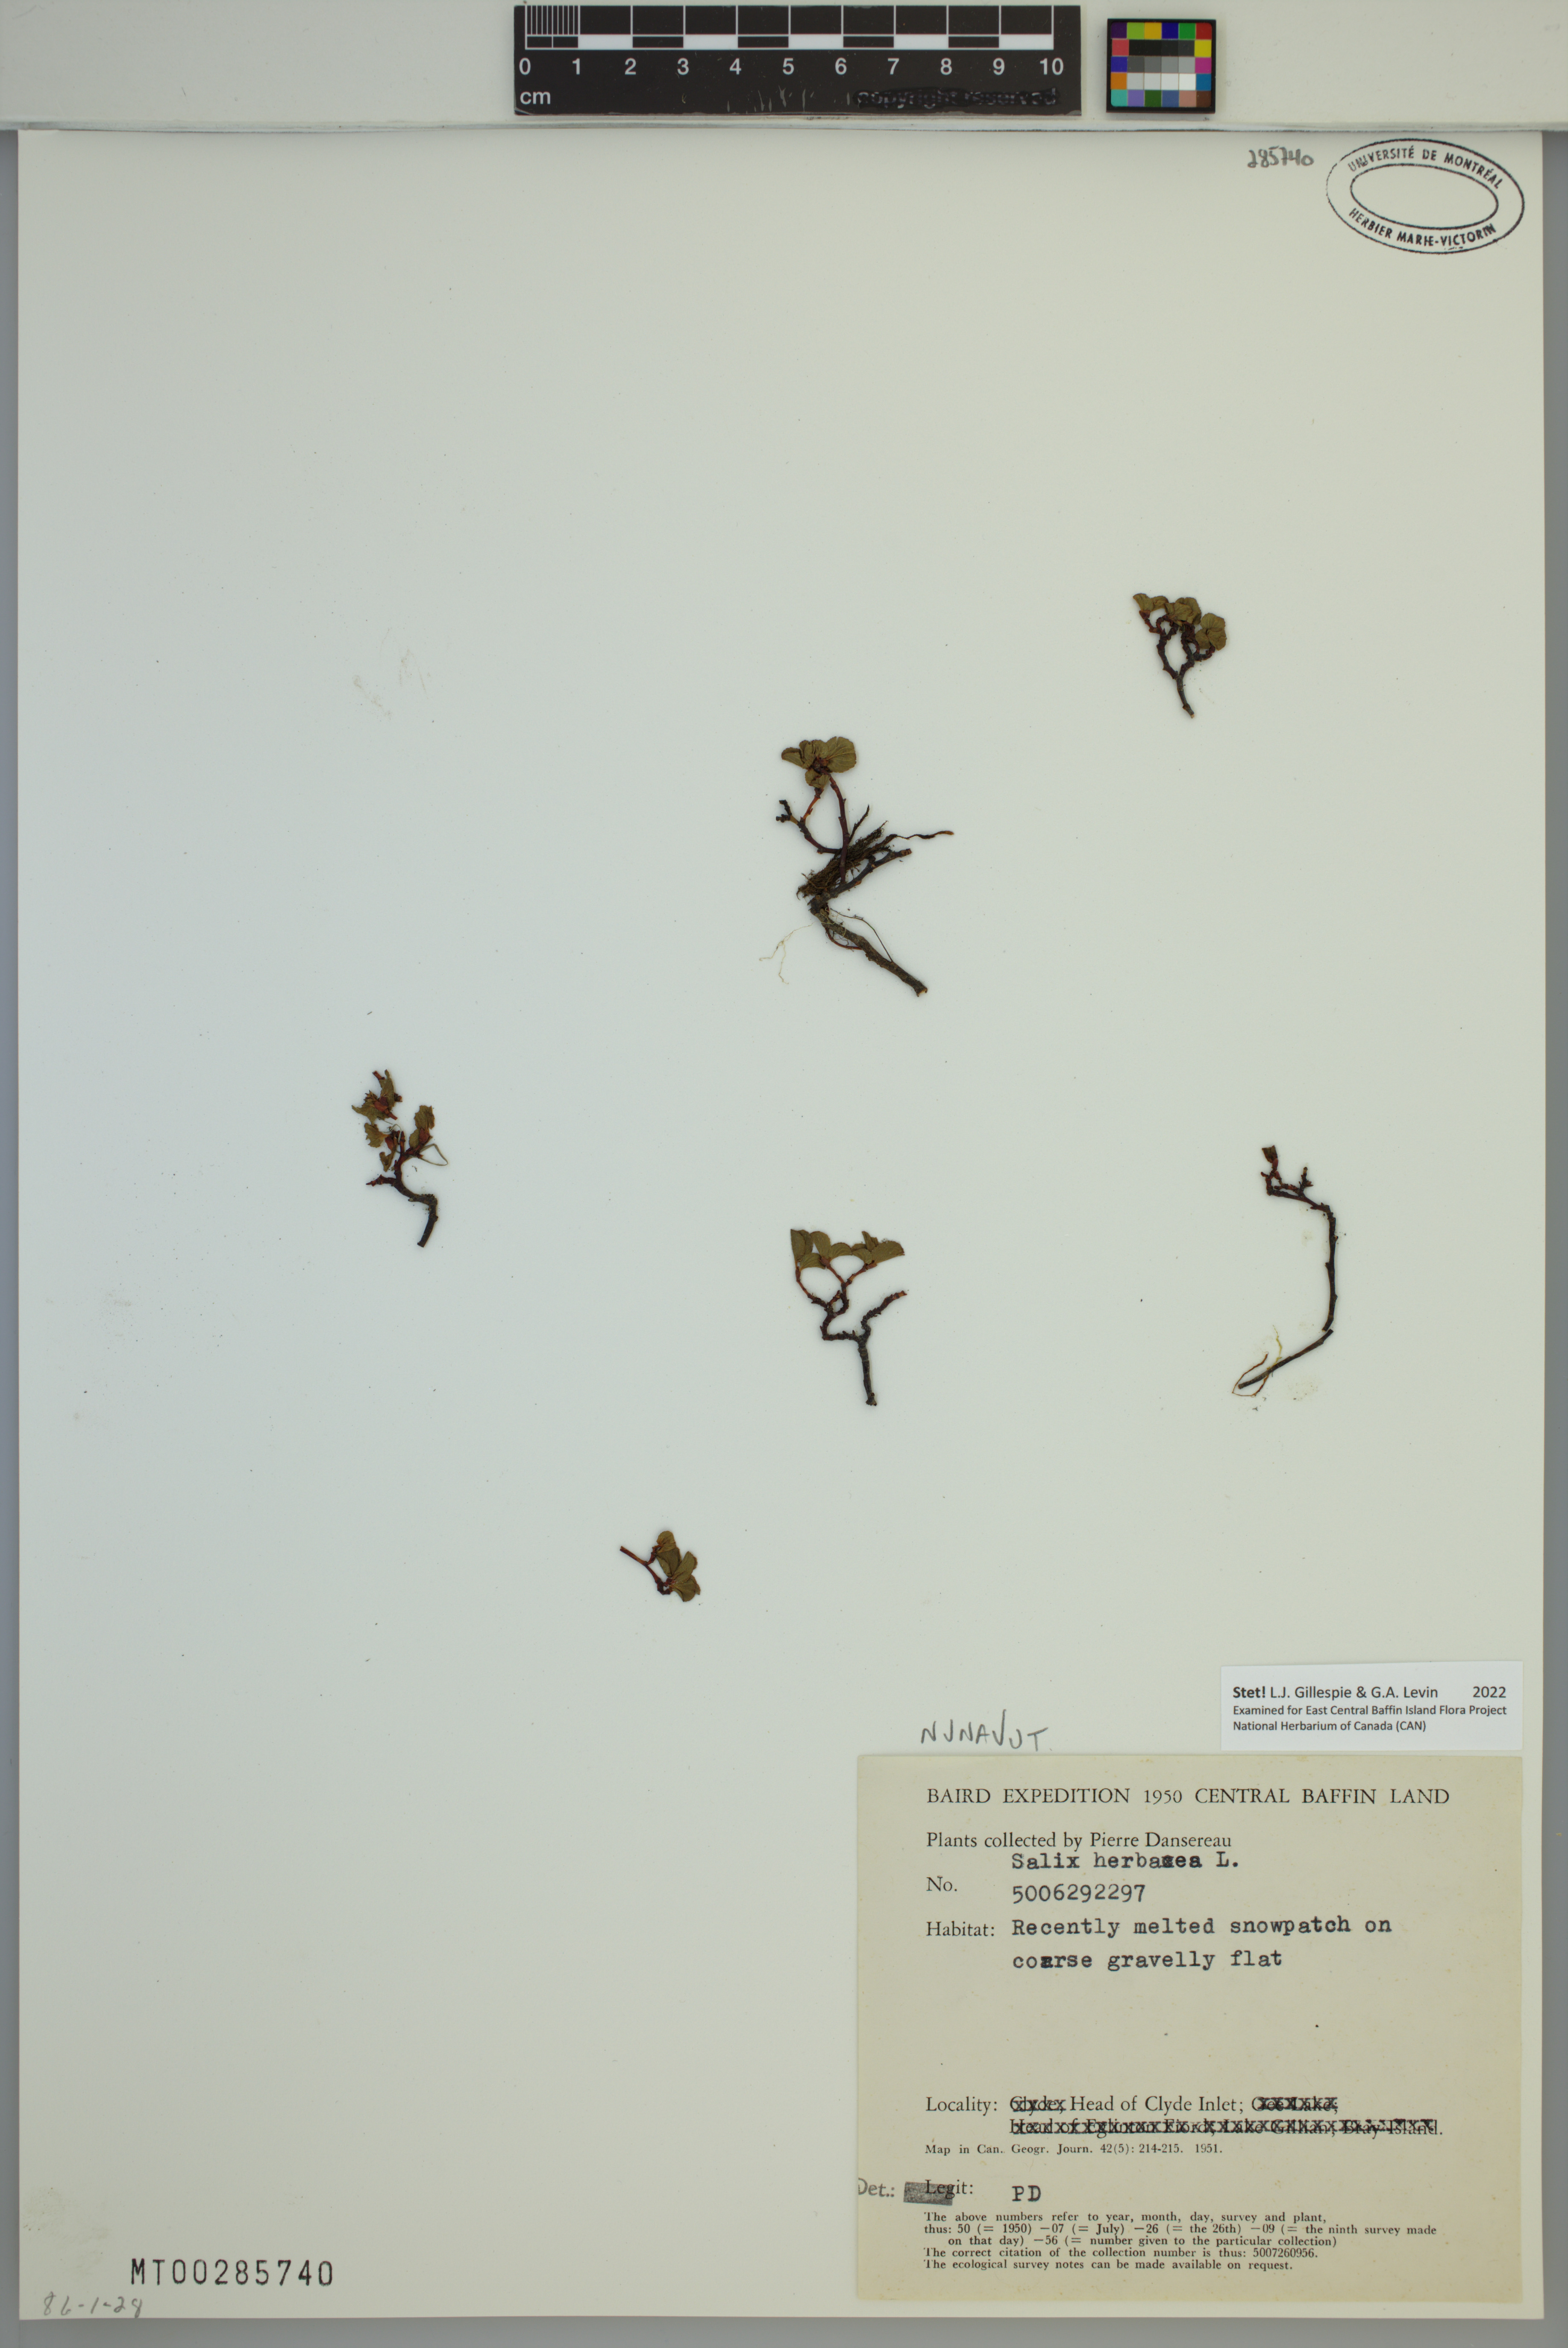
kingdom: Plantae
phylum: Tracheophyta
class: Magnoliopsida
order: Malpighiales
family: Salicaceae
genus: Salix
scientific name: Salix herbacea
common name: Dwarf willow
